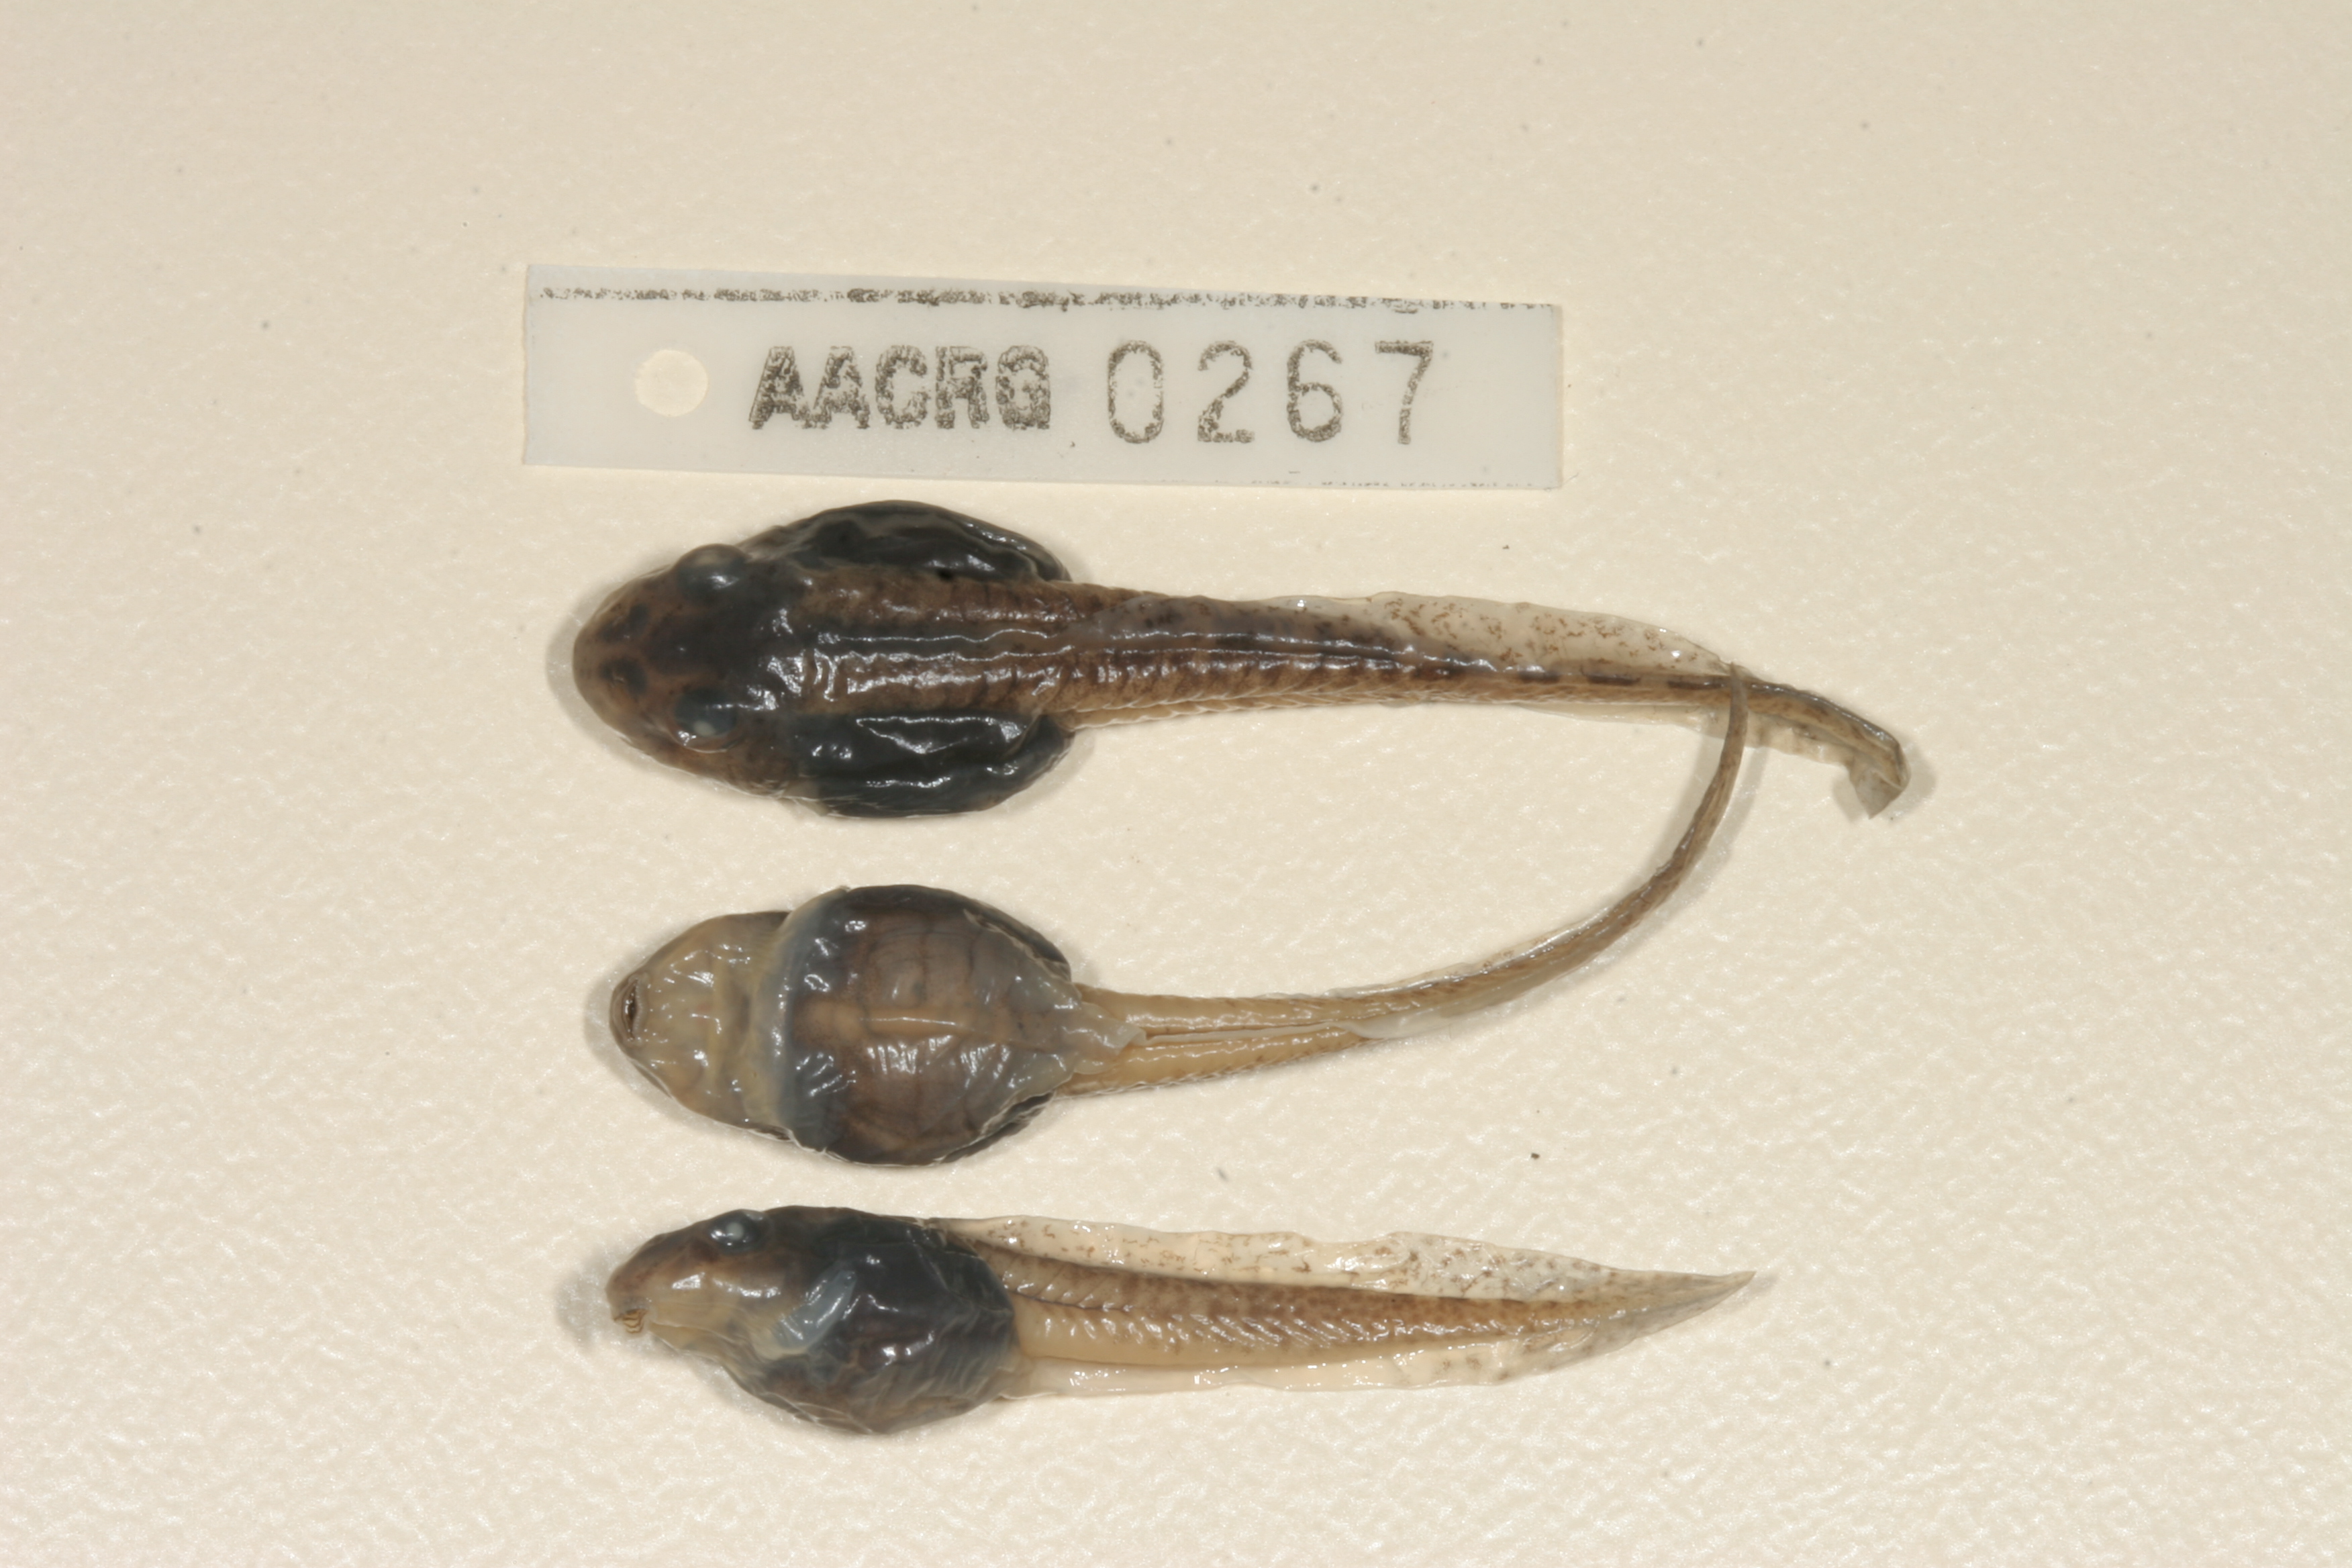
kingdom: Animalia
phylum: Chordata
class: Amphibia
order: Anura
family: Pyxicephalidae
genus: Amietia
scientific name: Amietia fuscigula
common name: Cape rana
